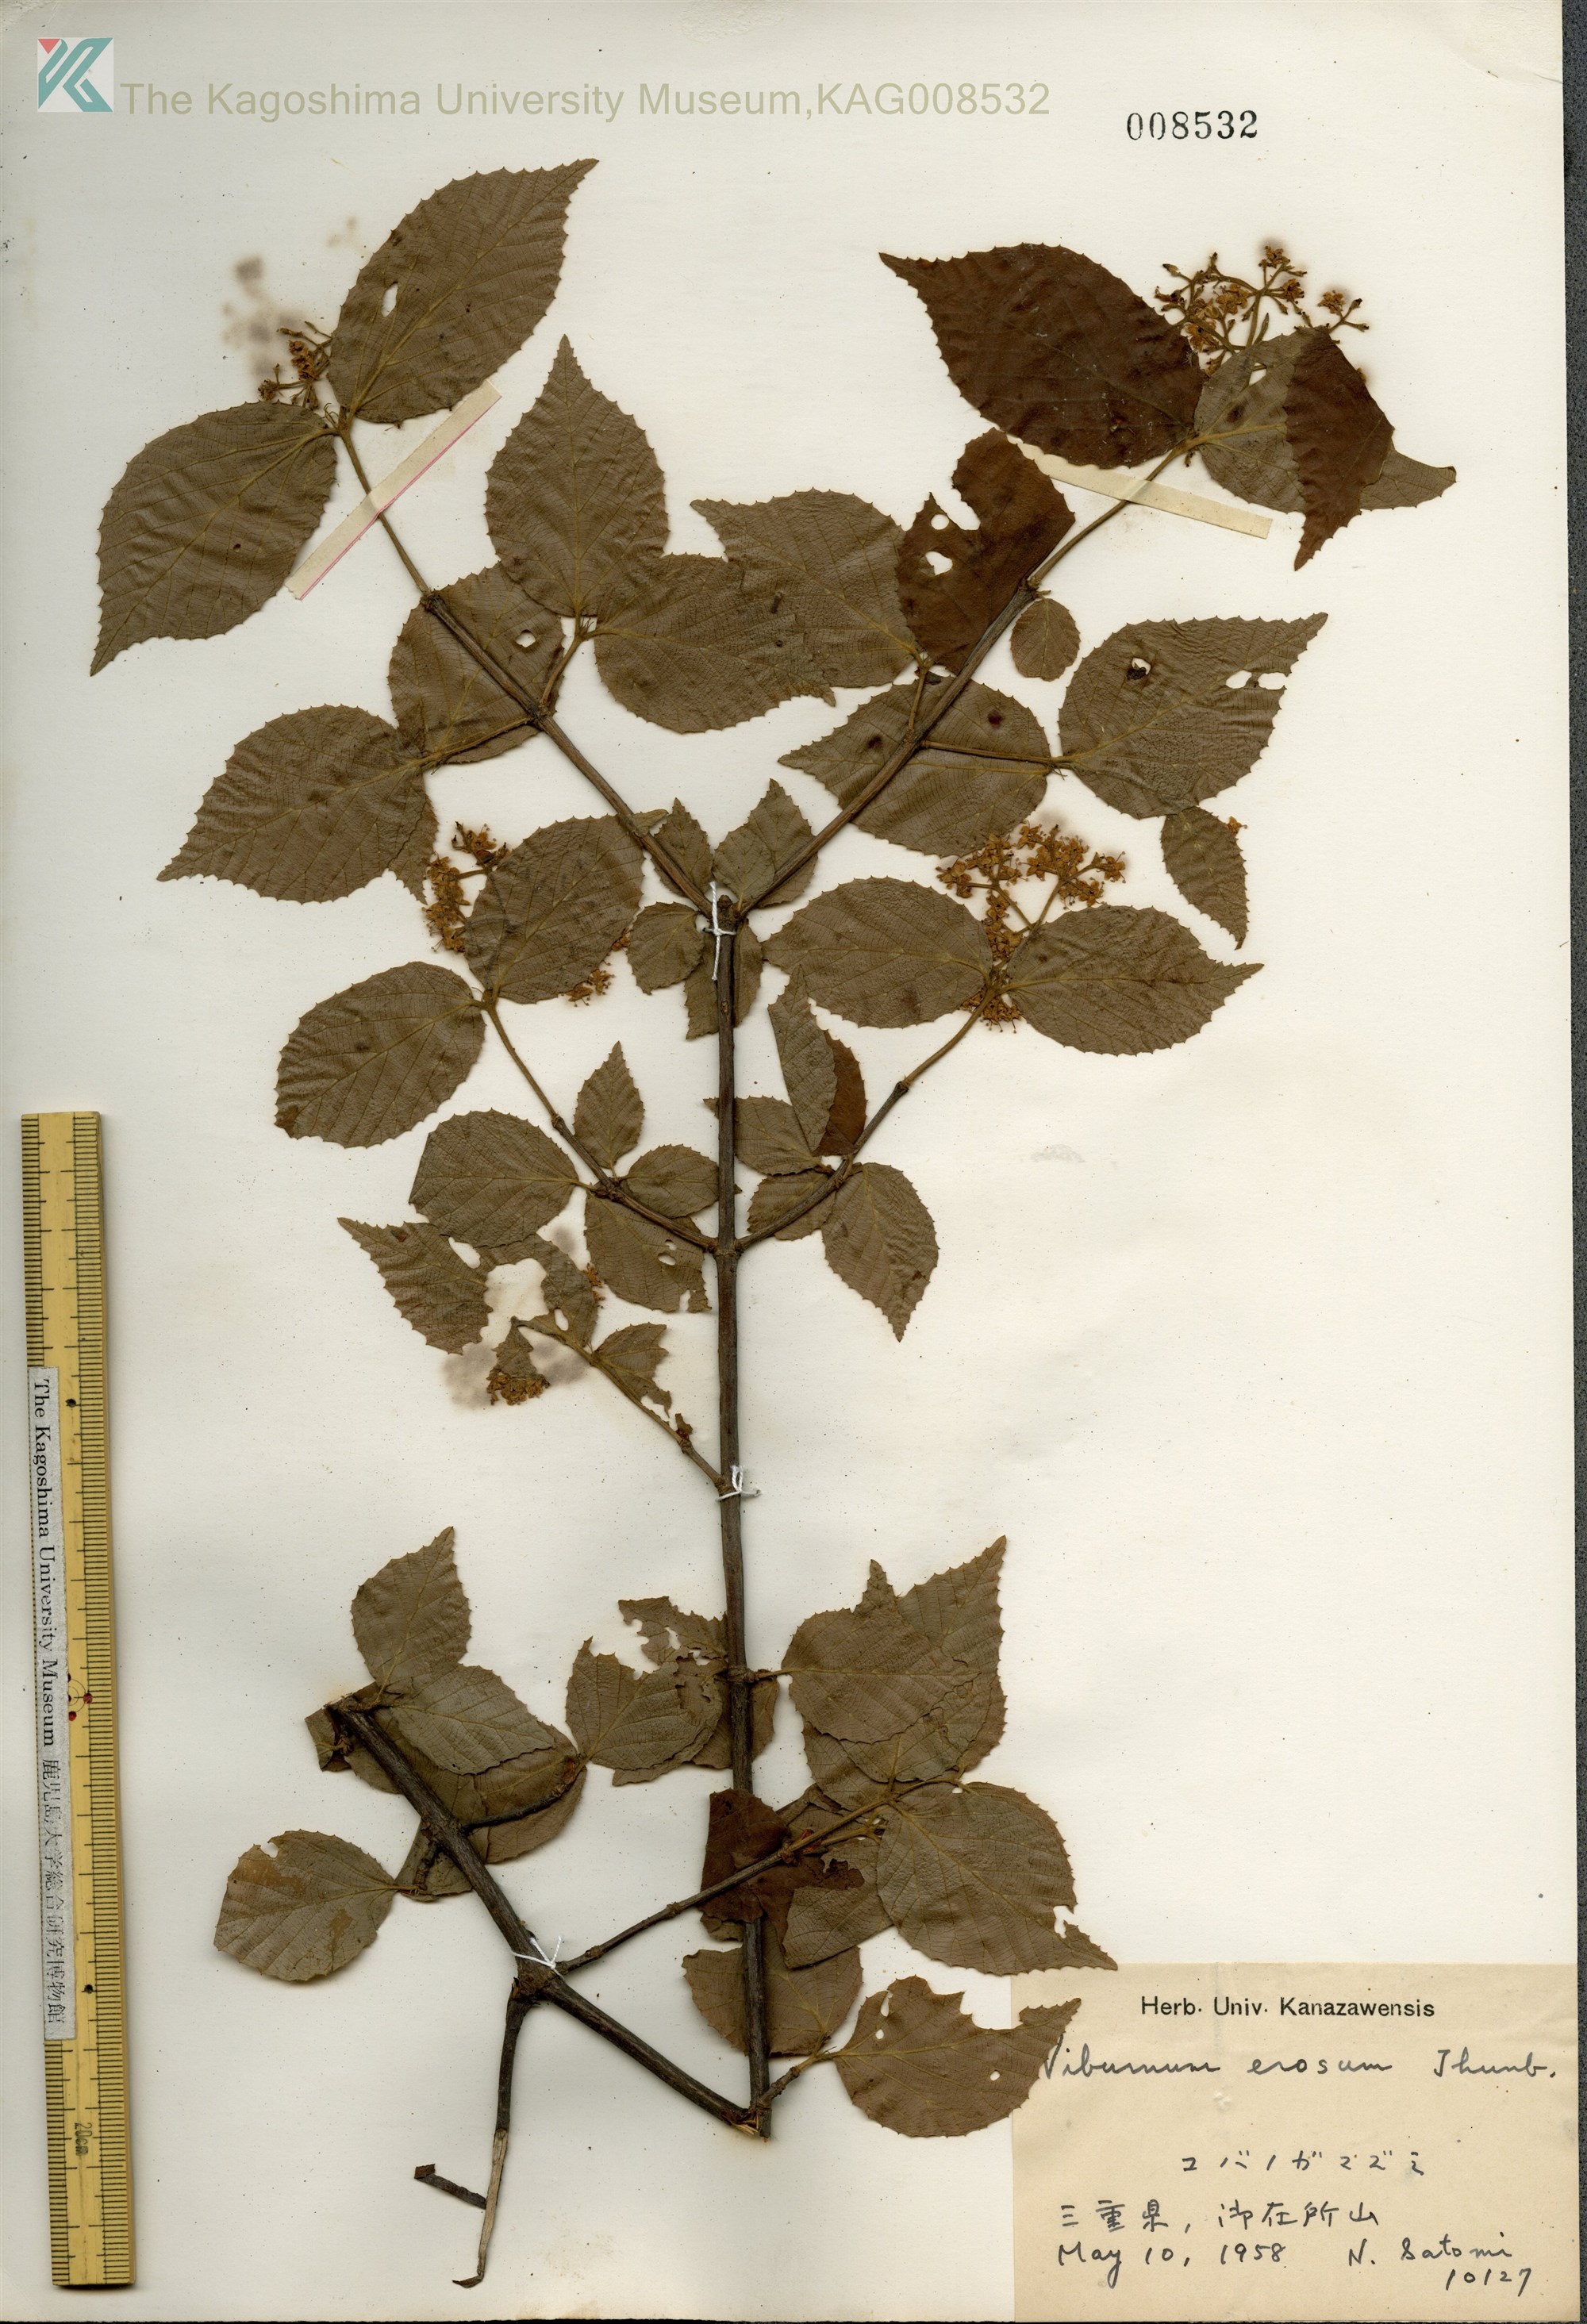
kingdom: Plantae
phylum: Tracheophyta
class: Magnoliopsida
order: Dipsacales
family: Viburnaceae
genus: Viburnum
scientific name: Viburnum erosum
